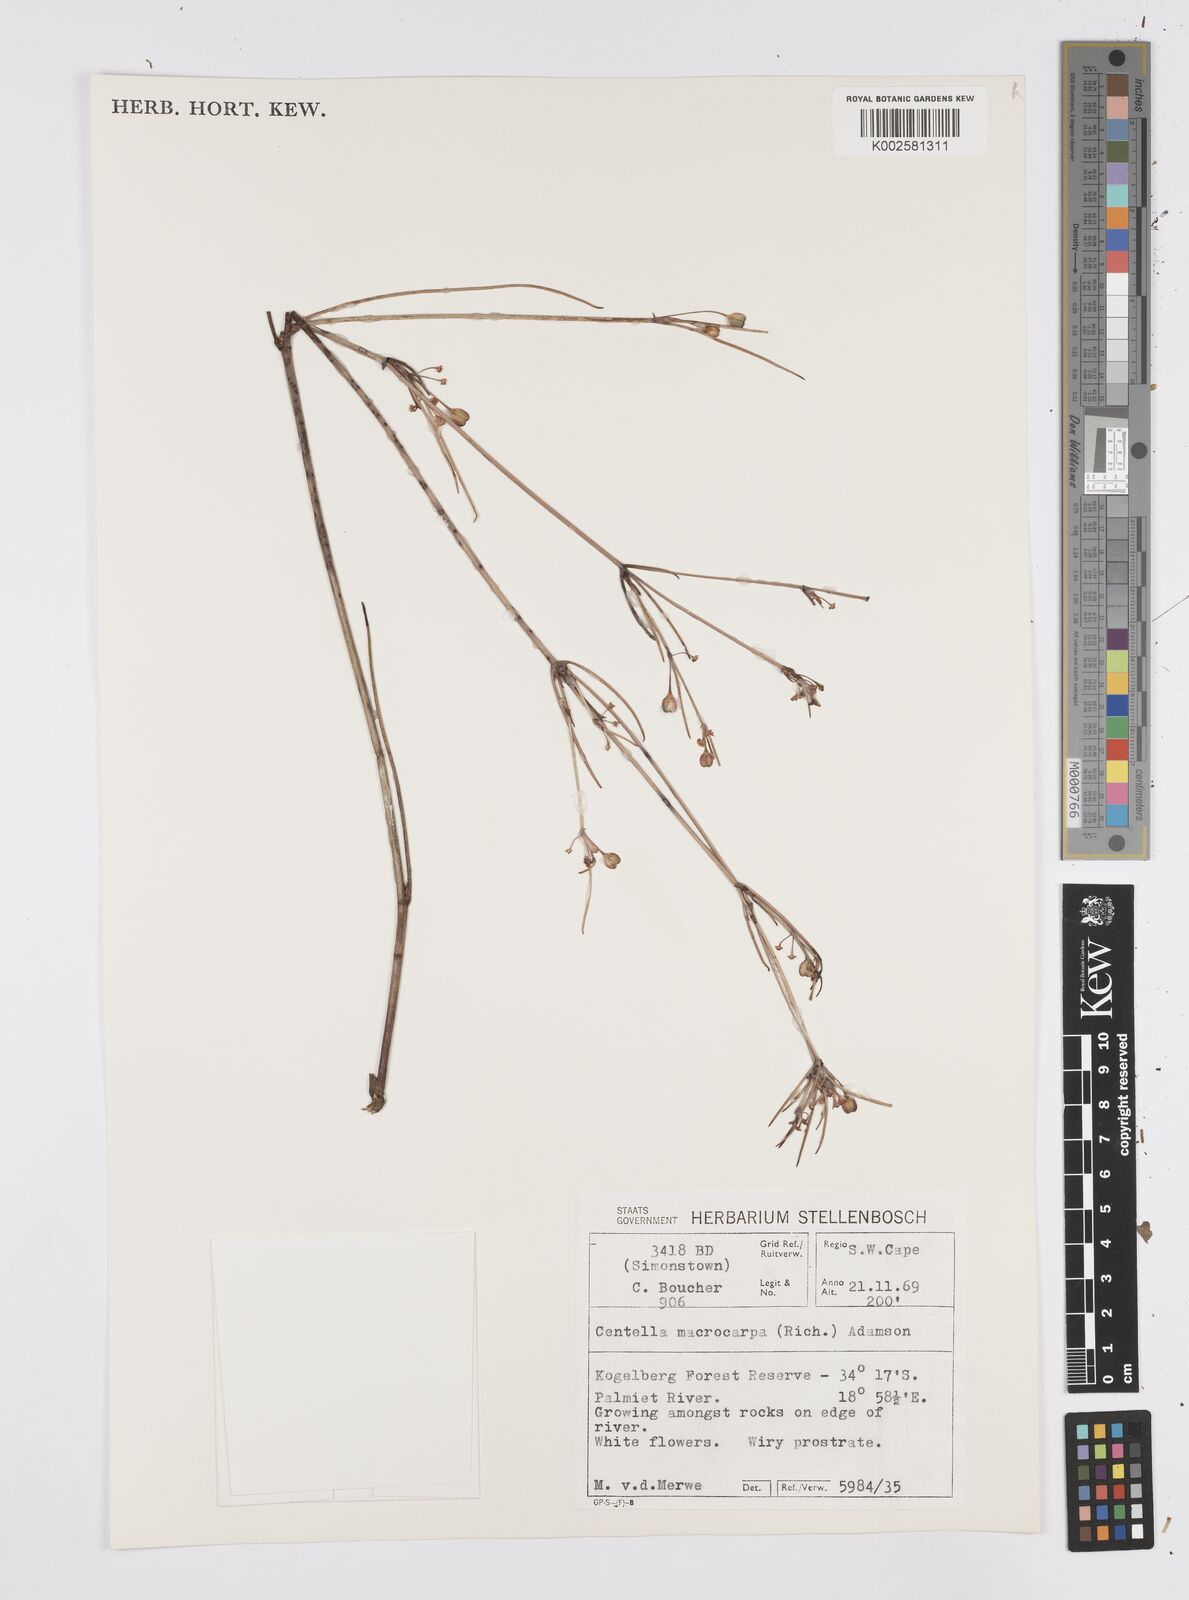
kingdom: Plantae
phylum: Tracheophyta
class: Magnoliopsida
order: Apiales
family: Apiaceae
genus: Centella
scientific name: Centella macrocarpa
